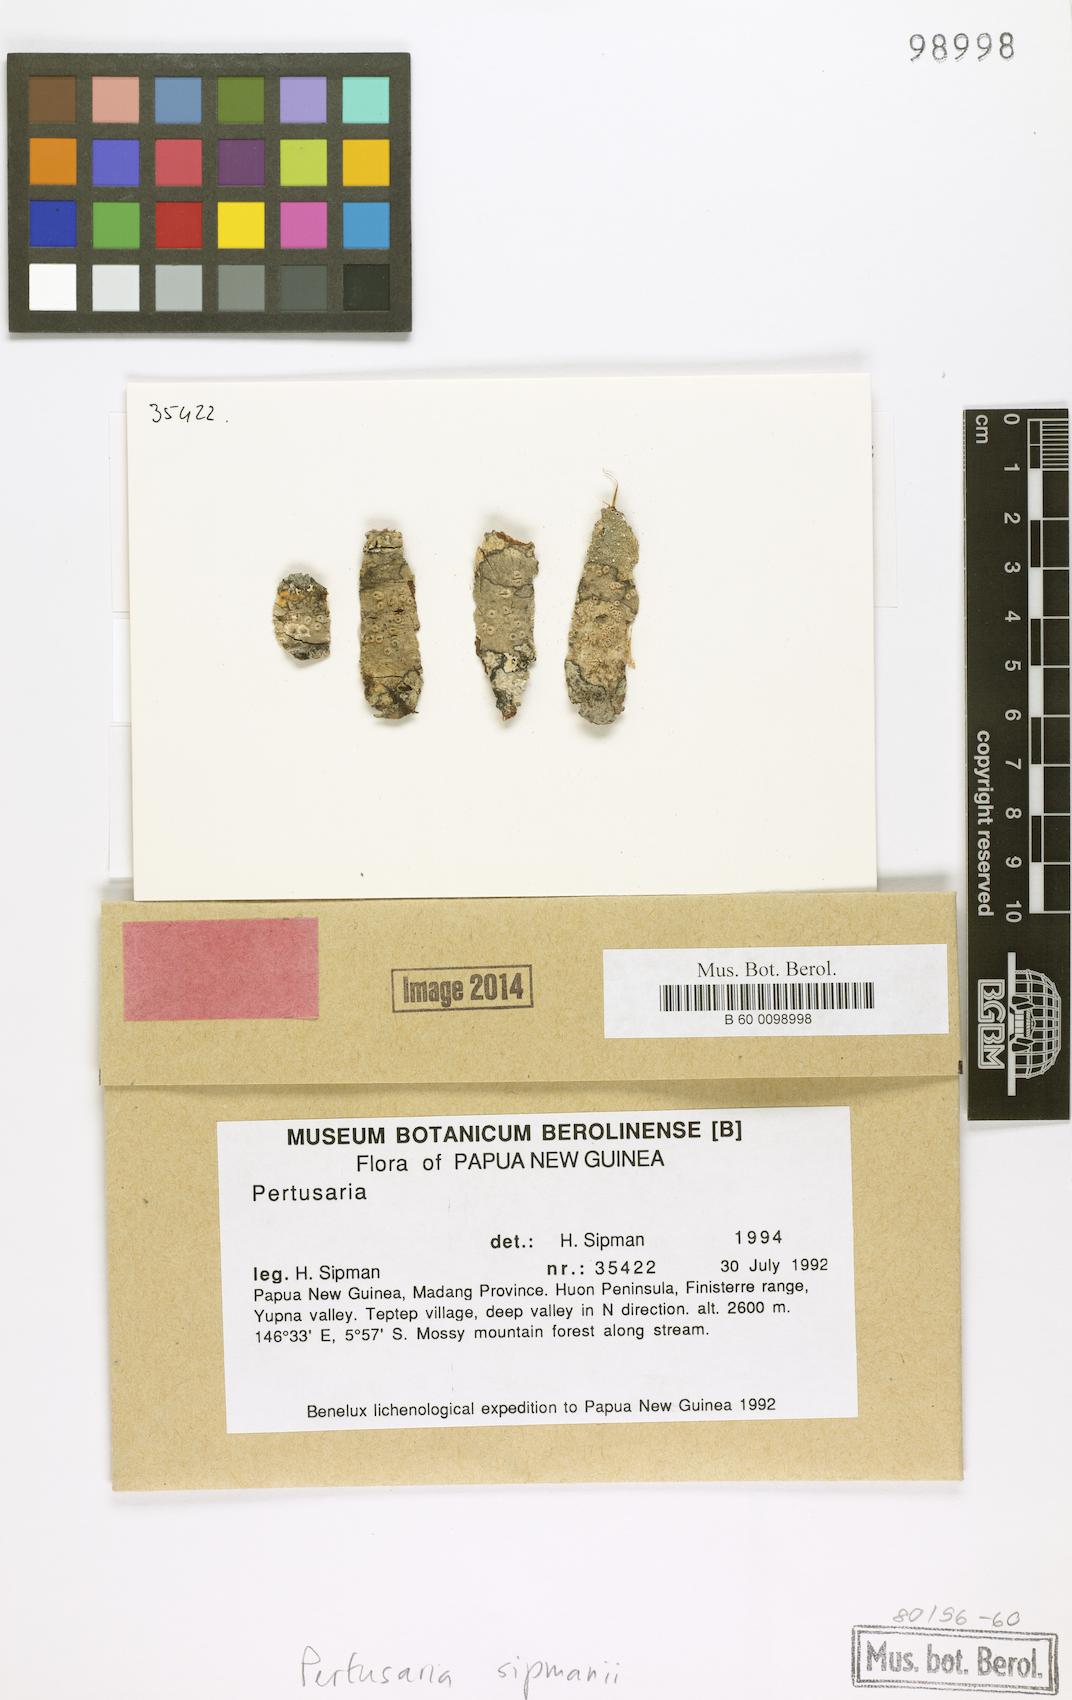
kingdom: Fungi
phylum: Ascomycota
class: Lecanoromycetes
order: Pertusariales
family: Pertusariaceae
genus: Pertusaria
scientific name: Pertusaria
